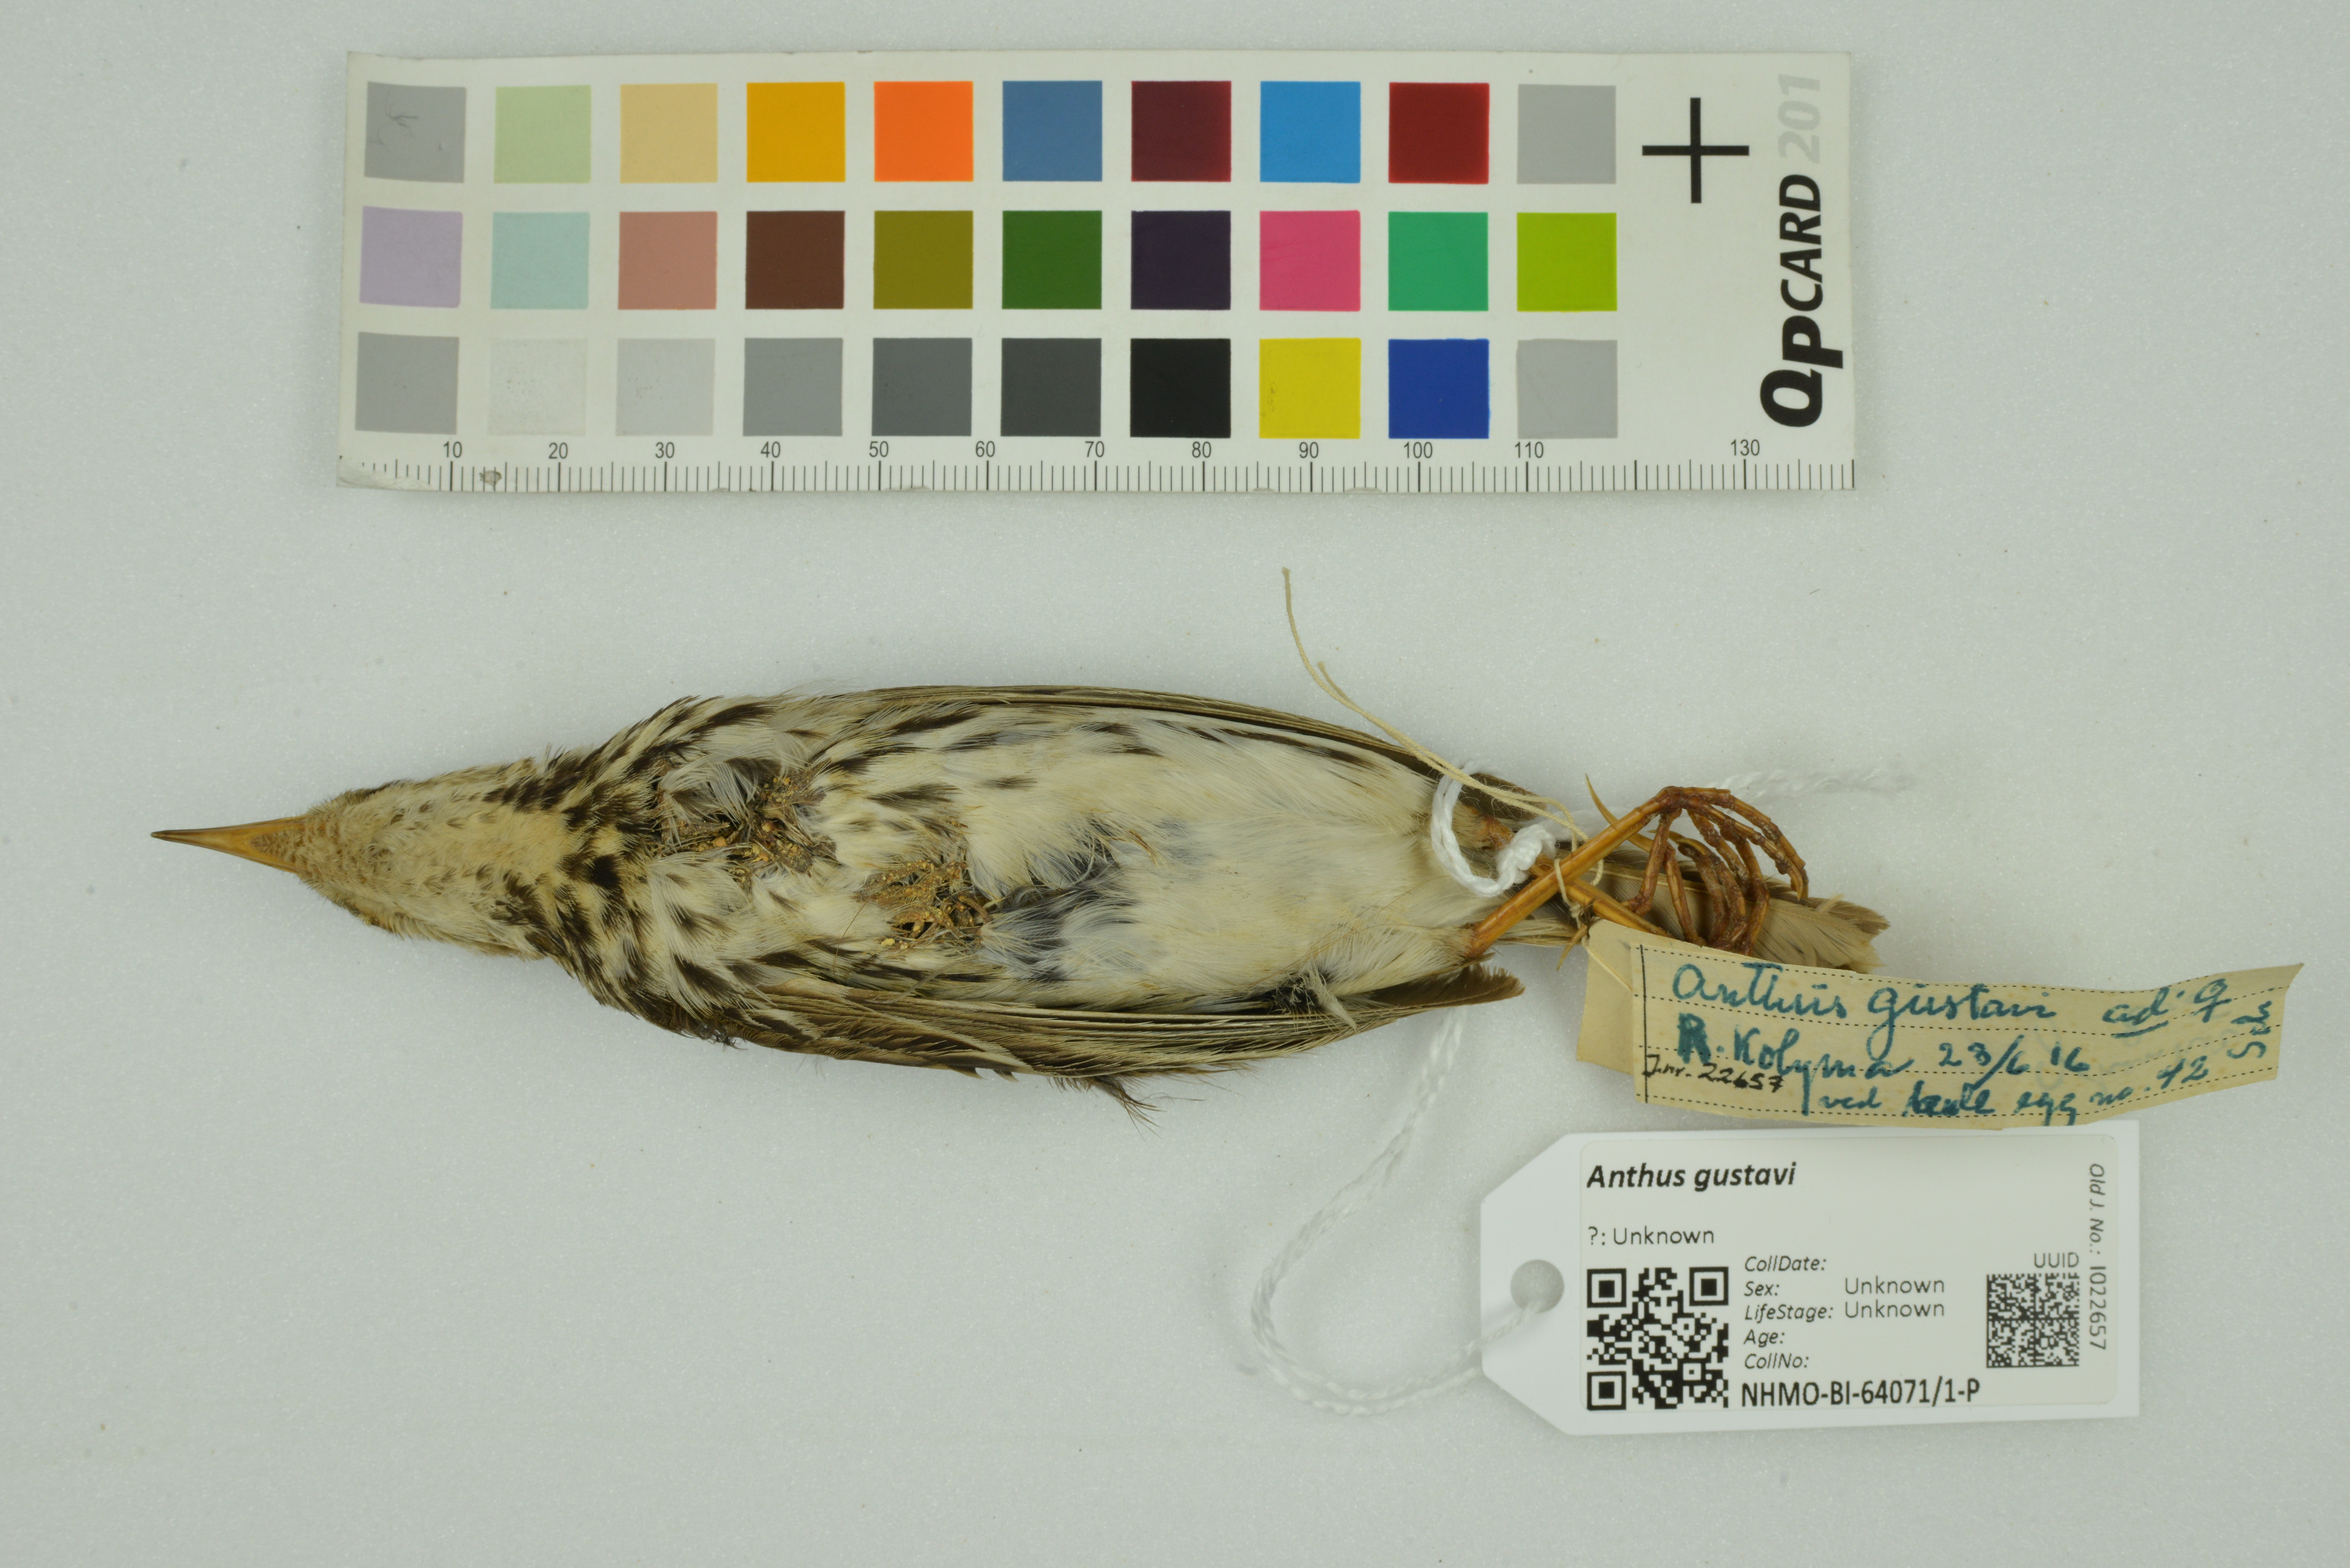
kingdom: Animalia
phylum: Chordata
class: Aves
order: Passeriformes
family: Motacillidae
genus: Anthus
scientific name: Anthus gustavi
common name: Pechora pipit
